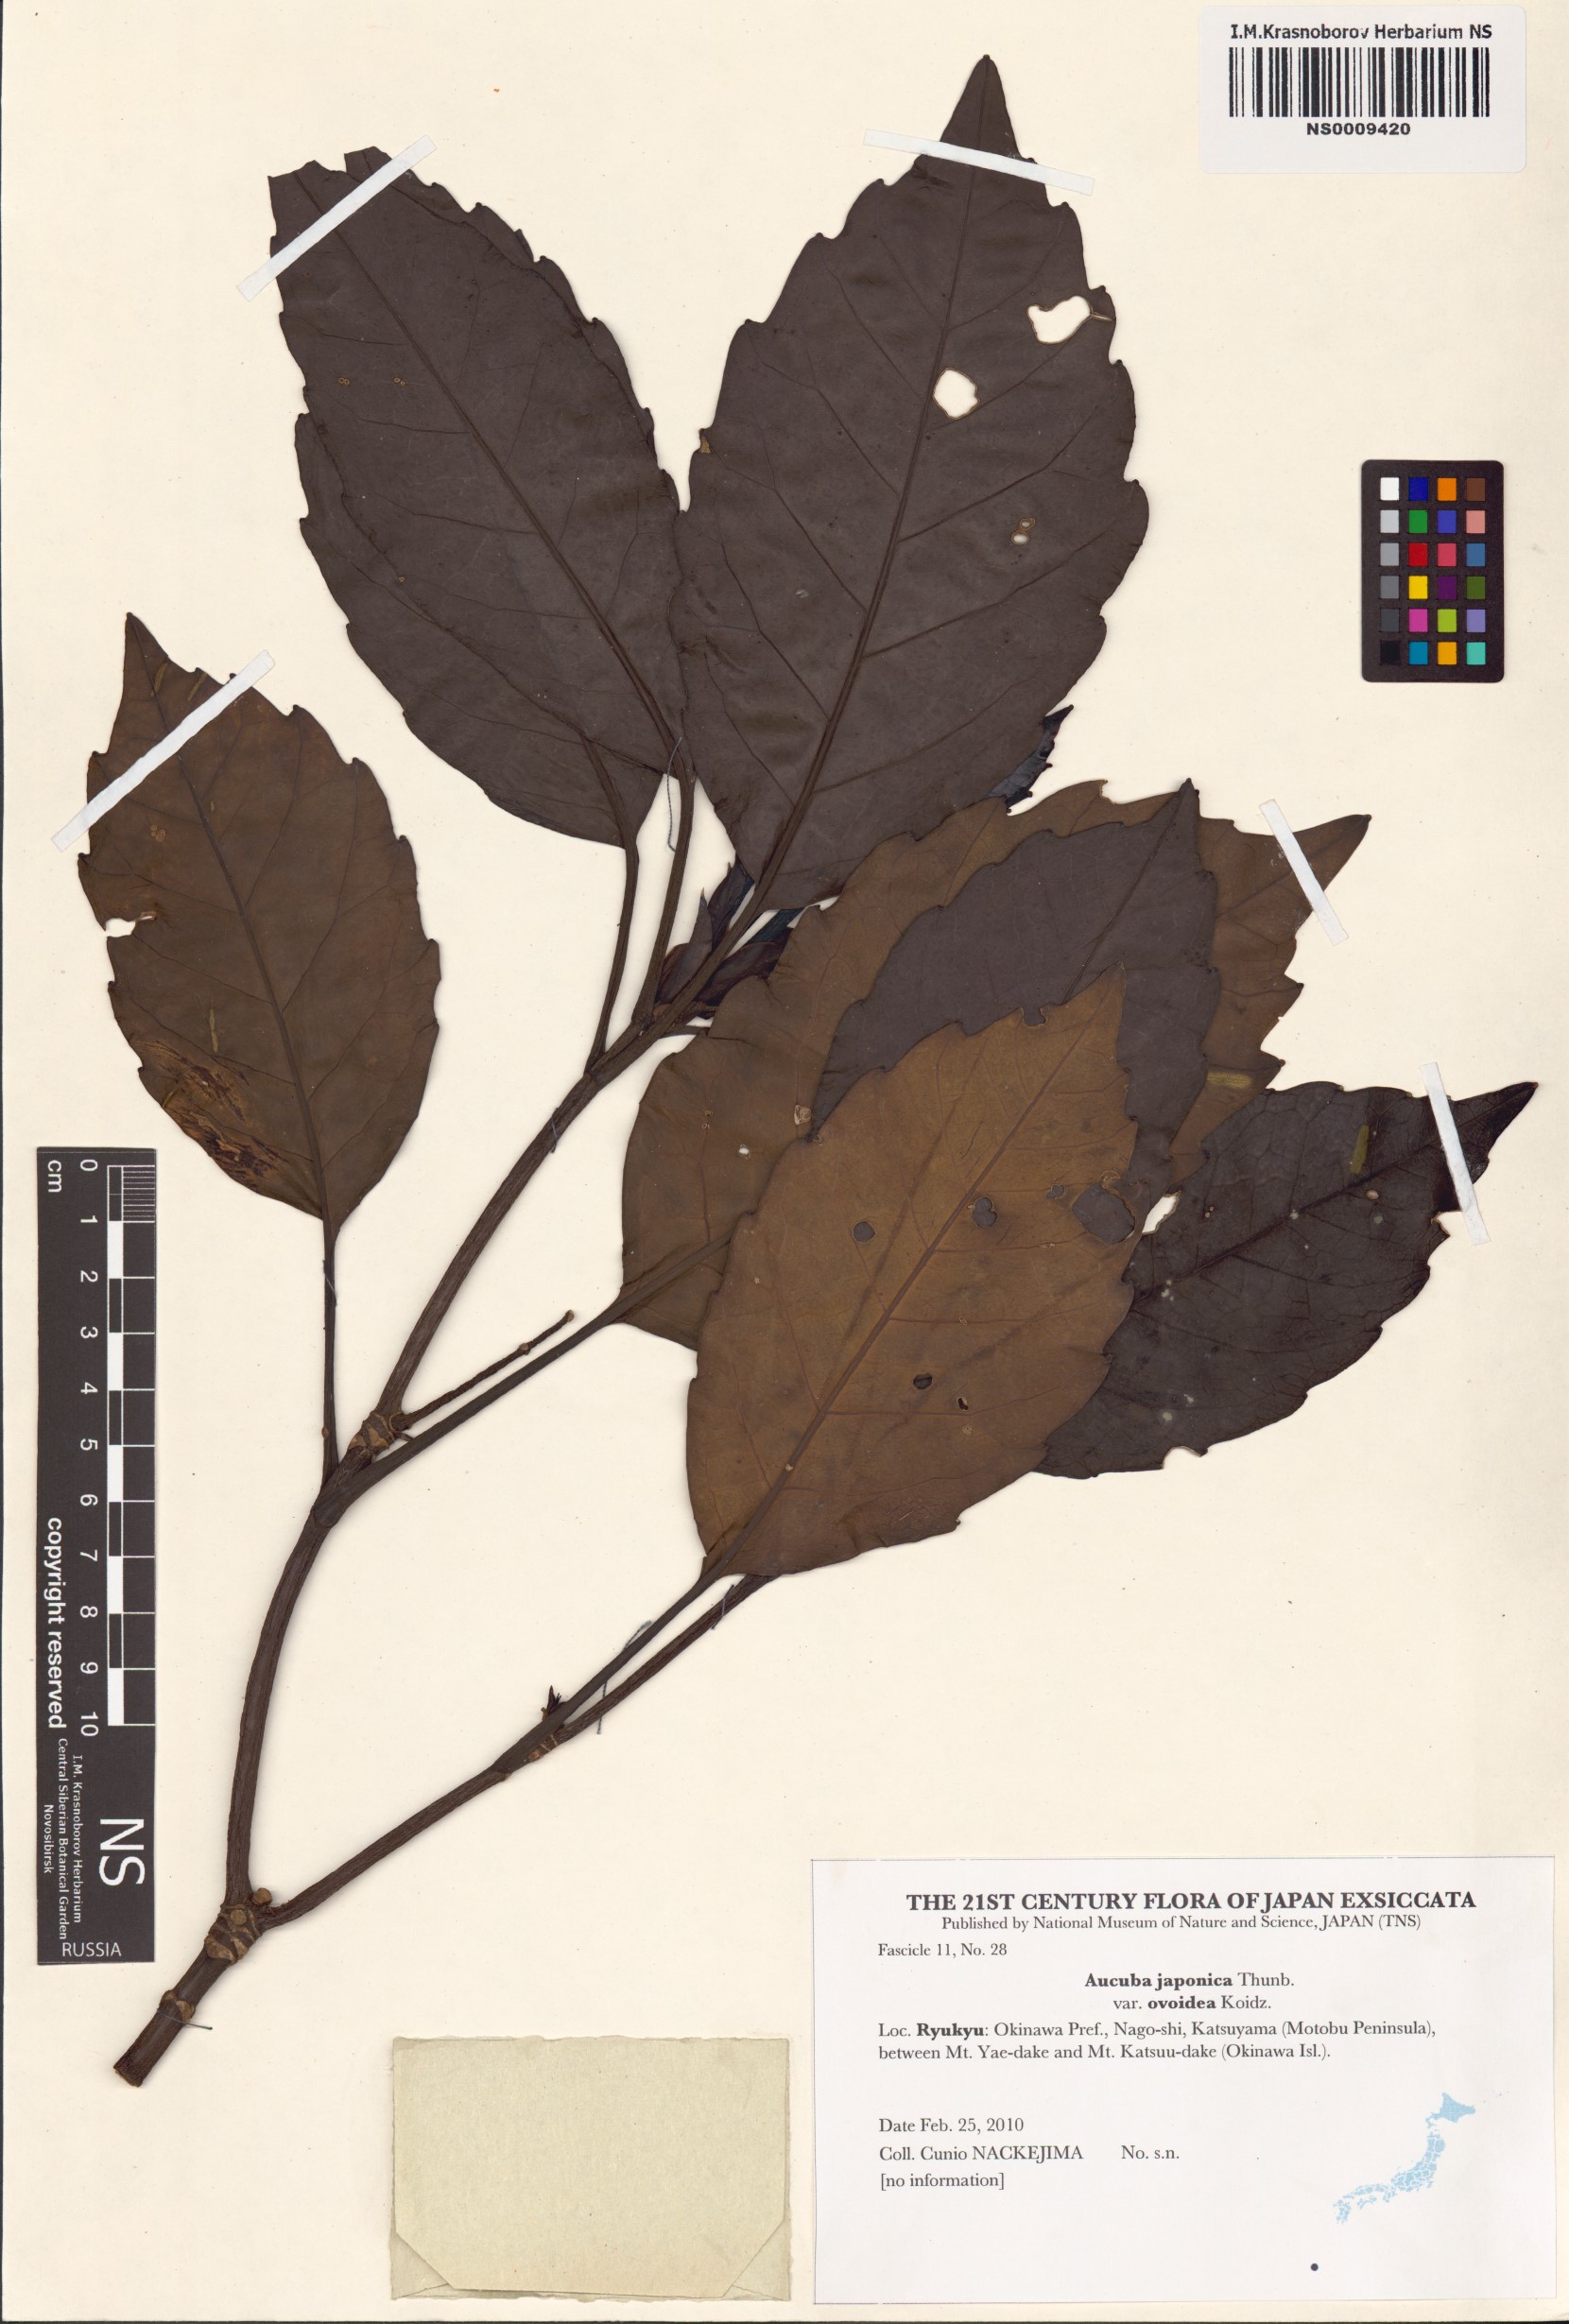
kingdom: Plantae
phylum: Tracheophyta
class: Magnoliopsida
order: Garryales
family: Garryaceae
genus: Aucuba
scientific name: Aucuba japonica
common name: Spotted-laurel
